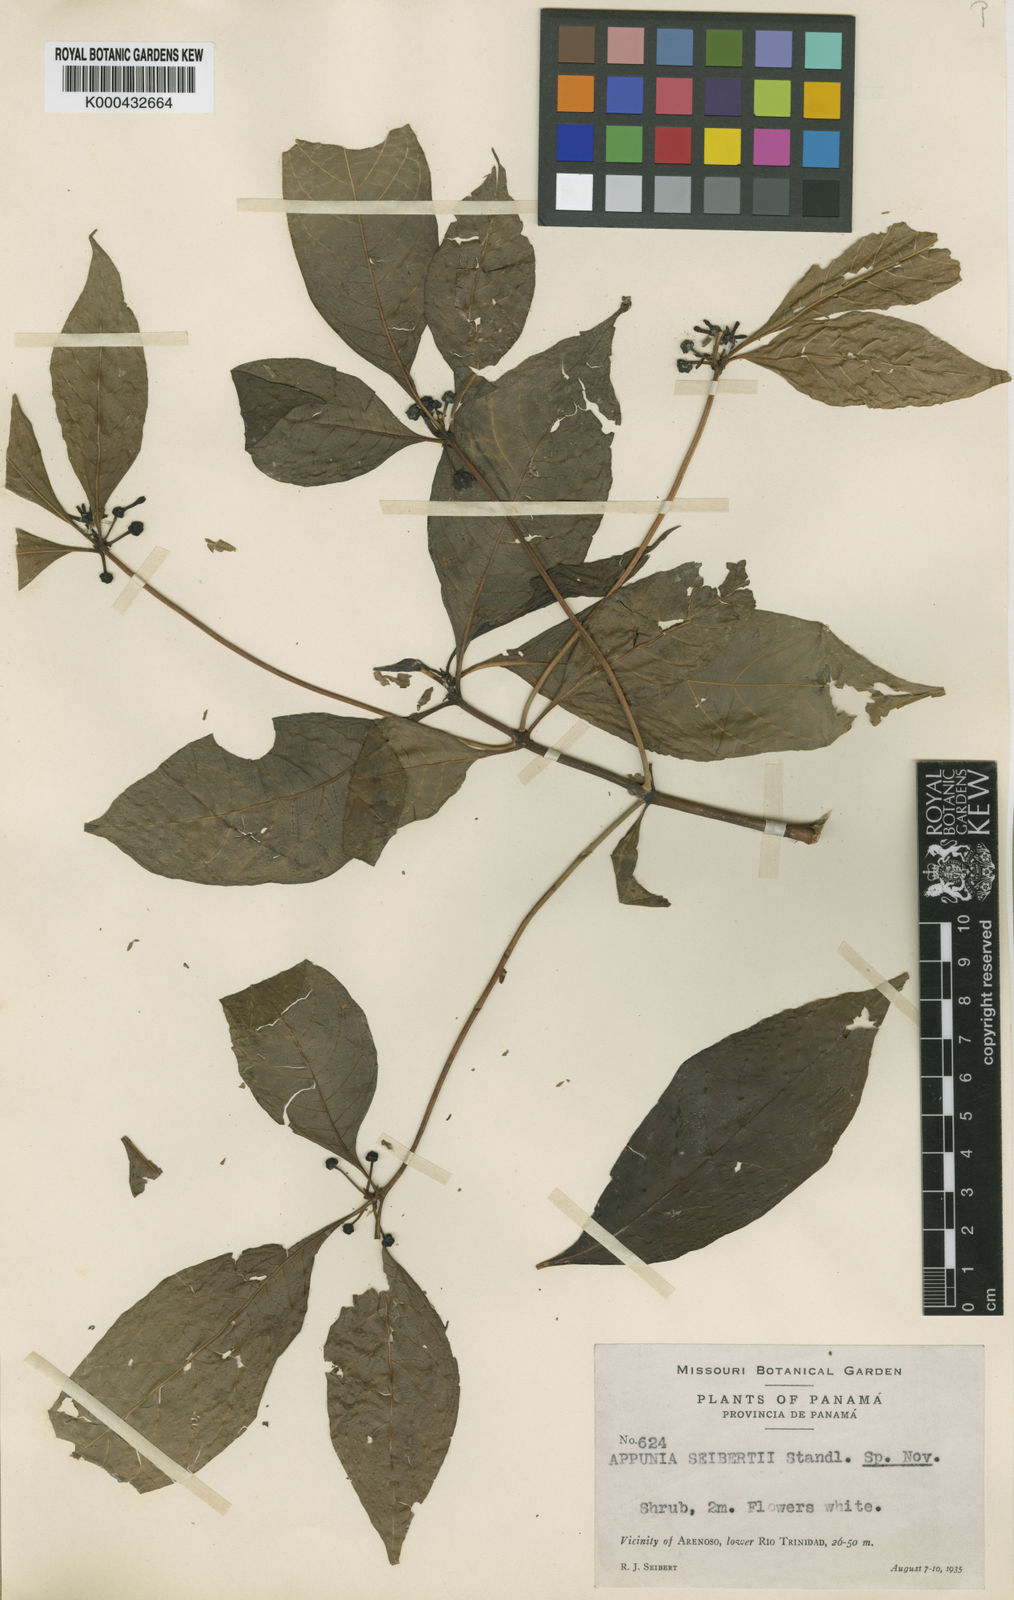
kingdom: Plantae
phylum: Tracheophyta
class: Magnoliopsida
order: Gentianales
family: Rubiaceae
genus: Appunia
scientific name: Appunia seibertii
